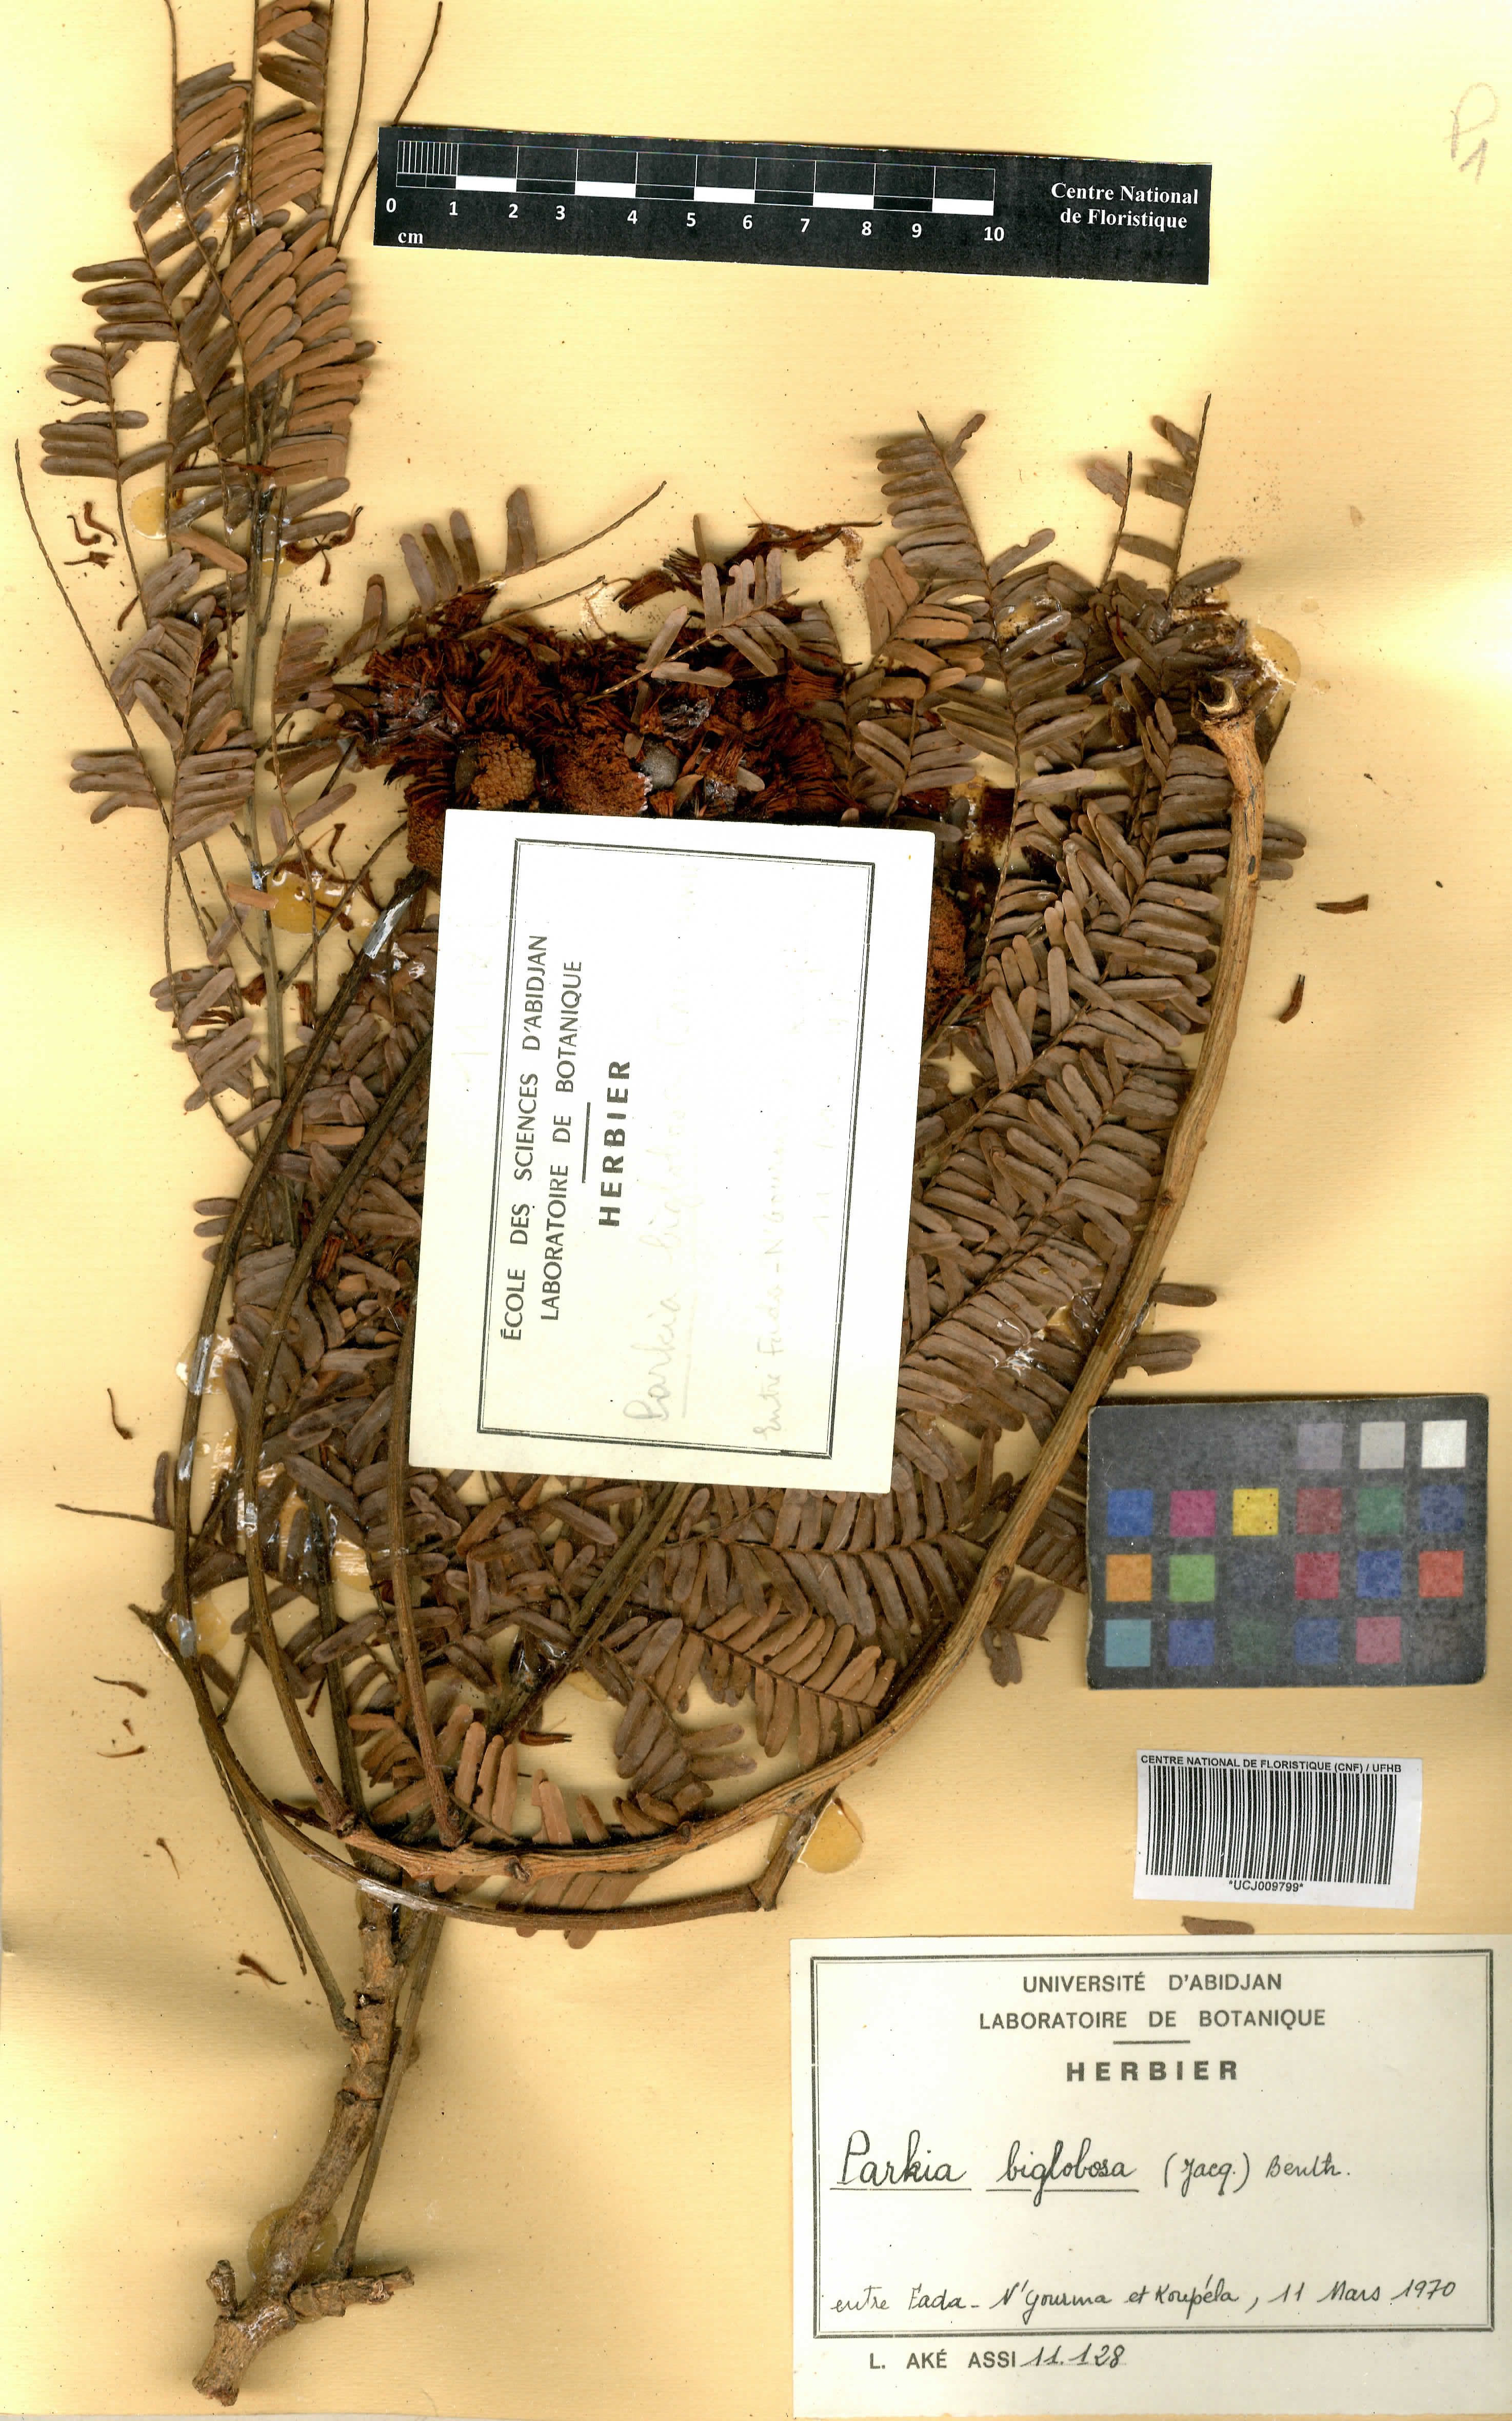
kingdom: Plantae
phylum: Tracheophyta
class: Magnoliopsida
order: Fabales
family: Fabaceae
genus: Parkia
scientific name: Parkia timoriana
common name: Legume
